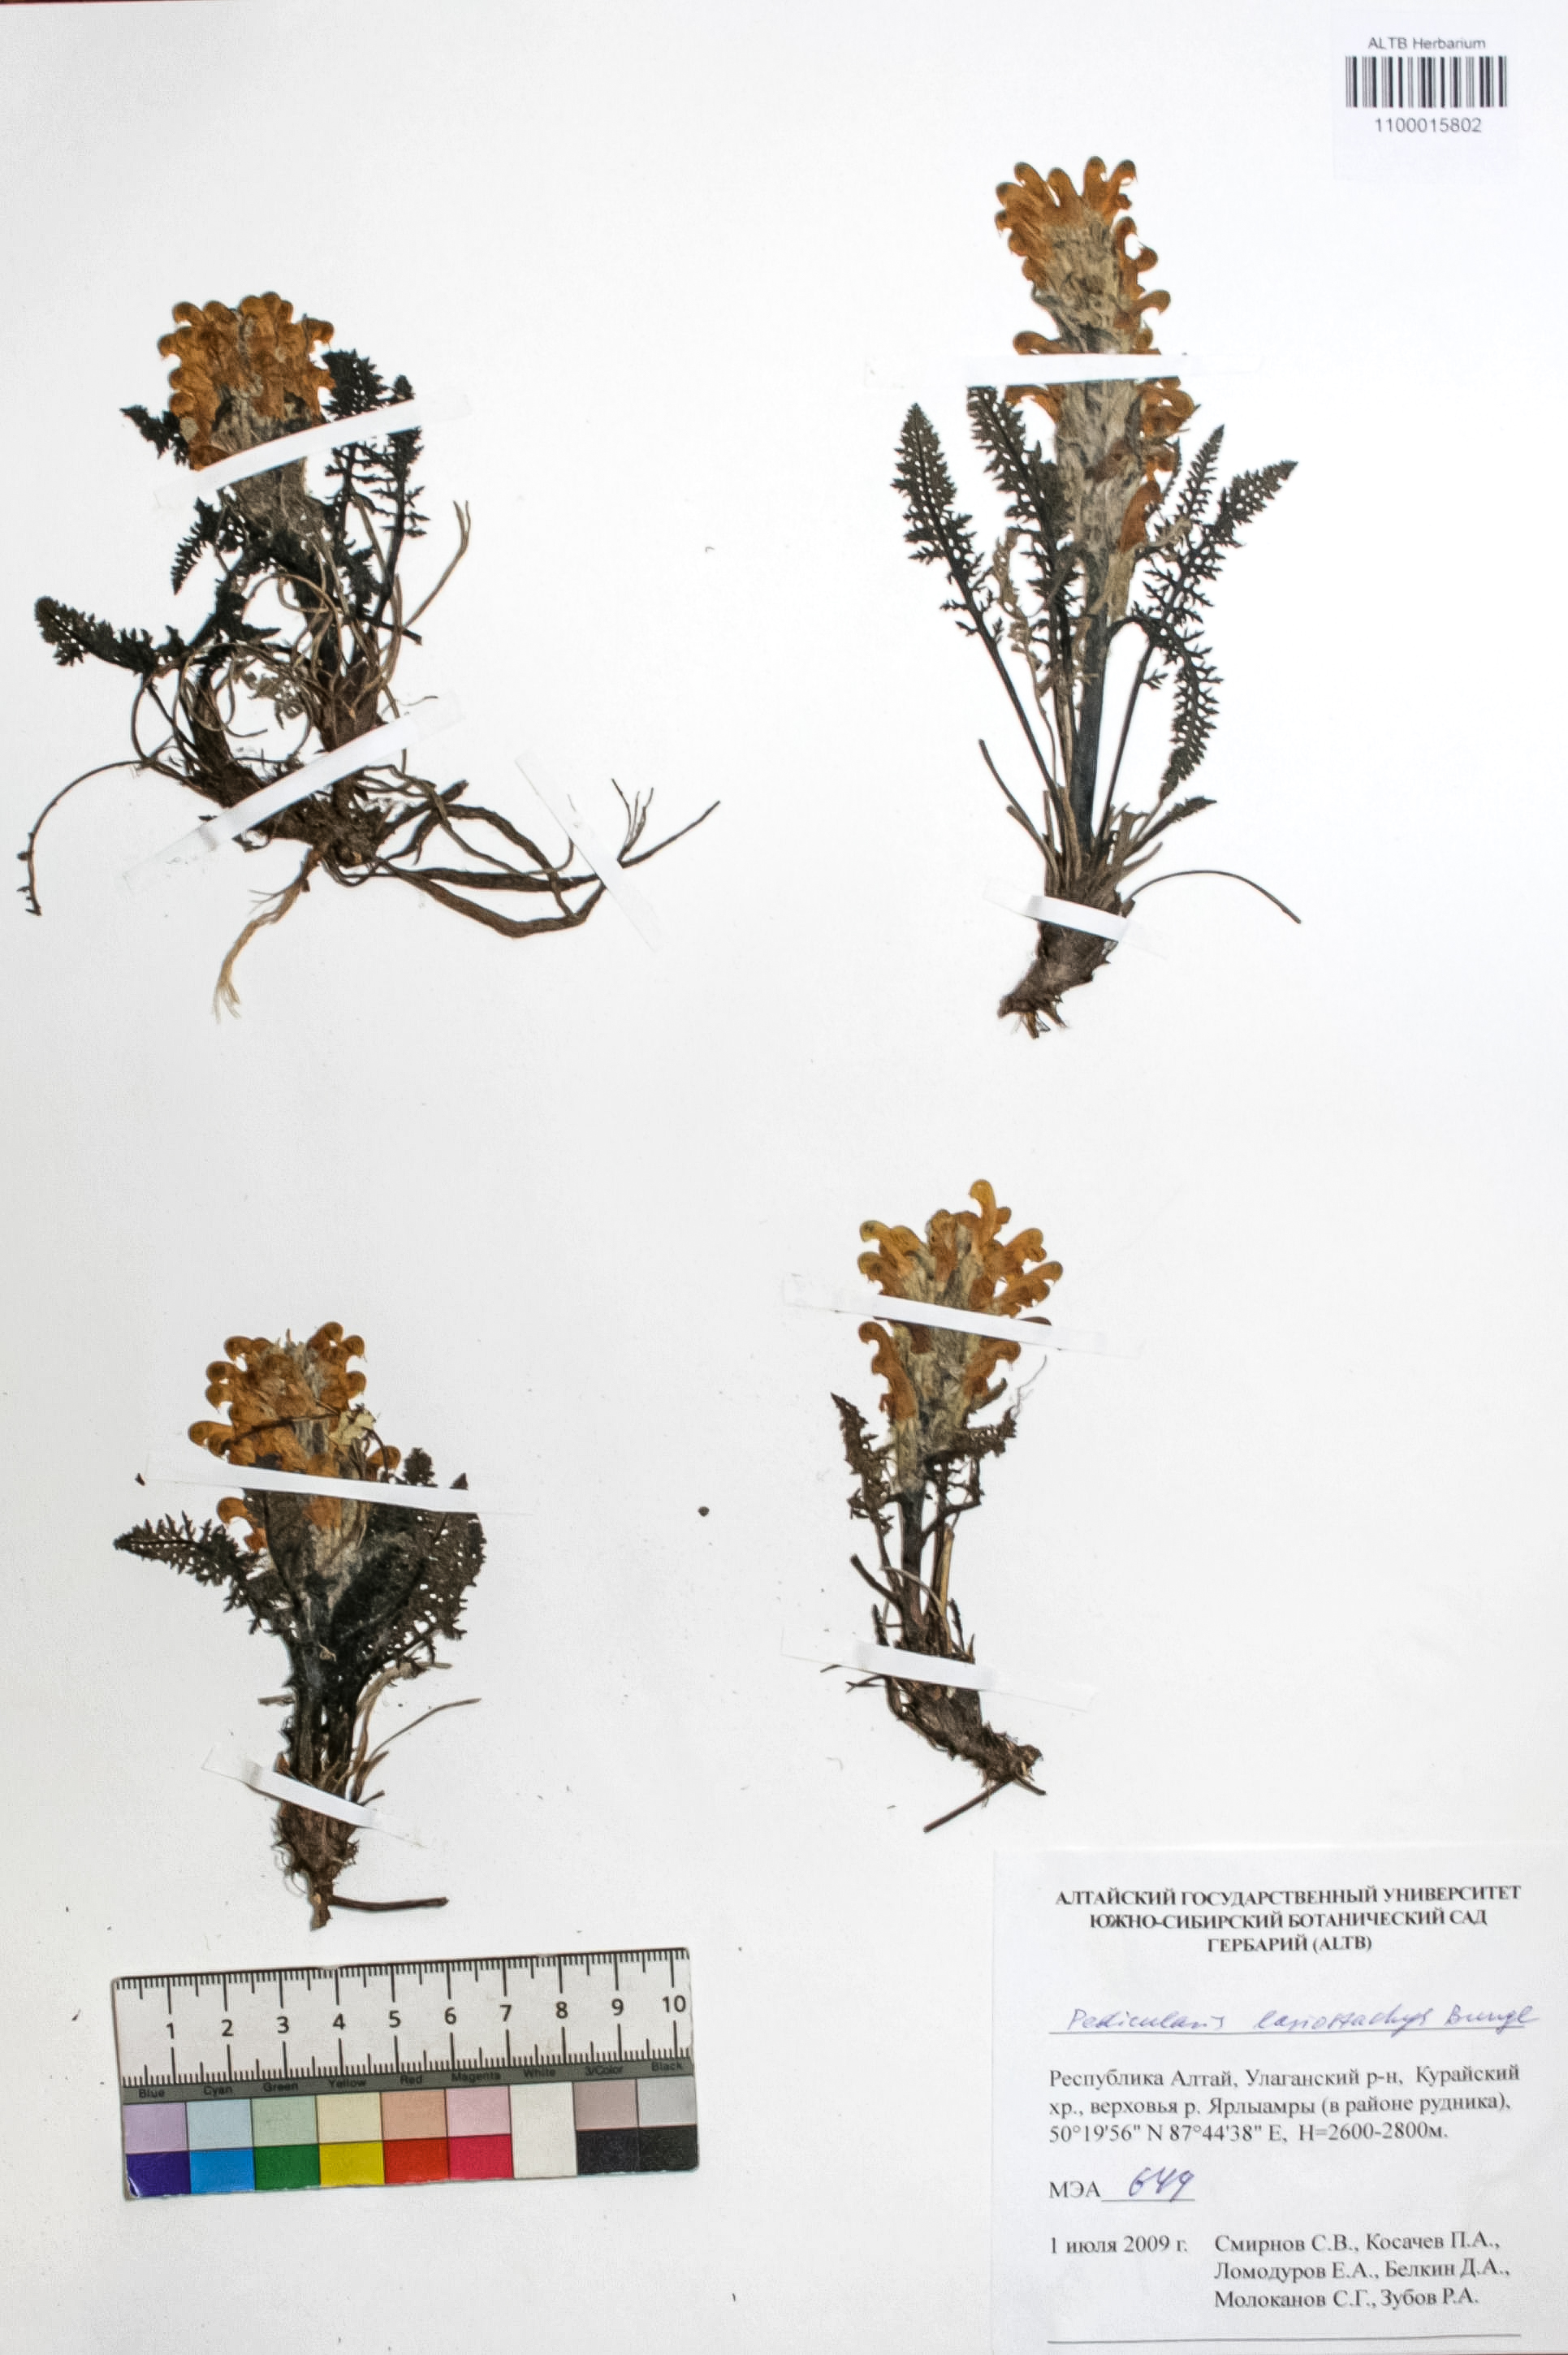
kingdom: Plantae
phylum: Tracheophyta
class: Magnoliopsida
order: Lamiales
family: Orobanchaceae
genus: Pedicularis
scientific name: Pedicularis lasiostachys
